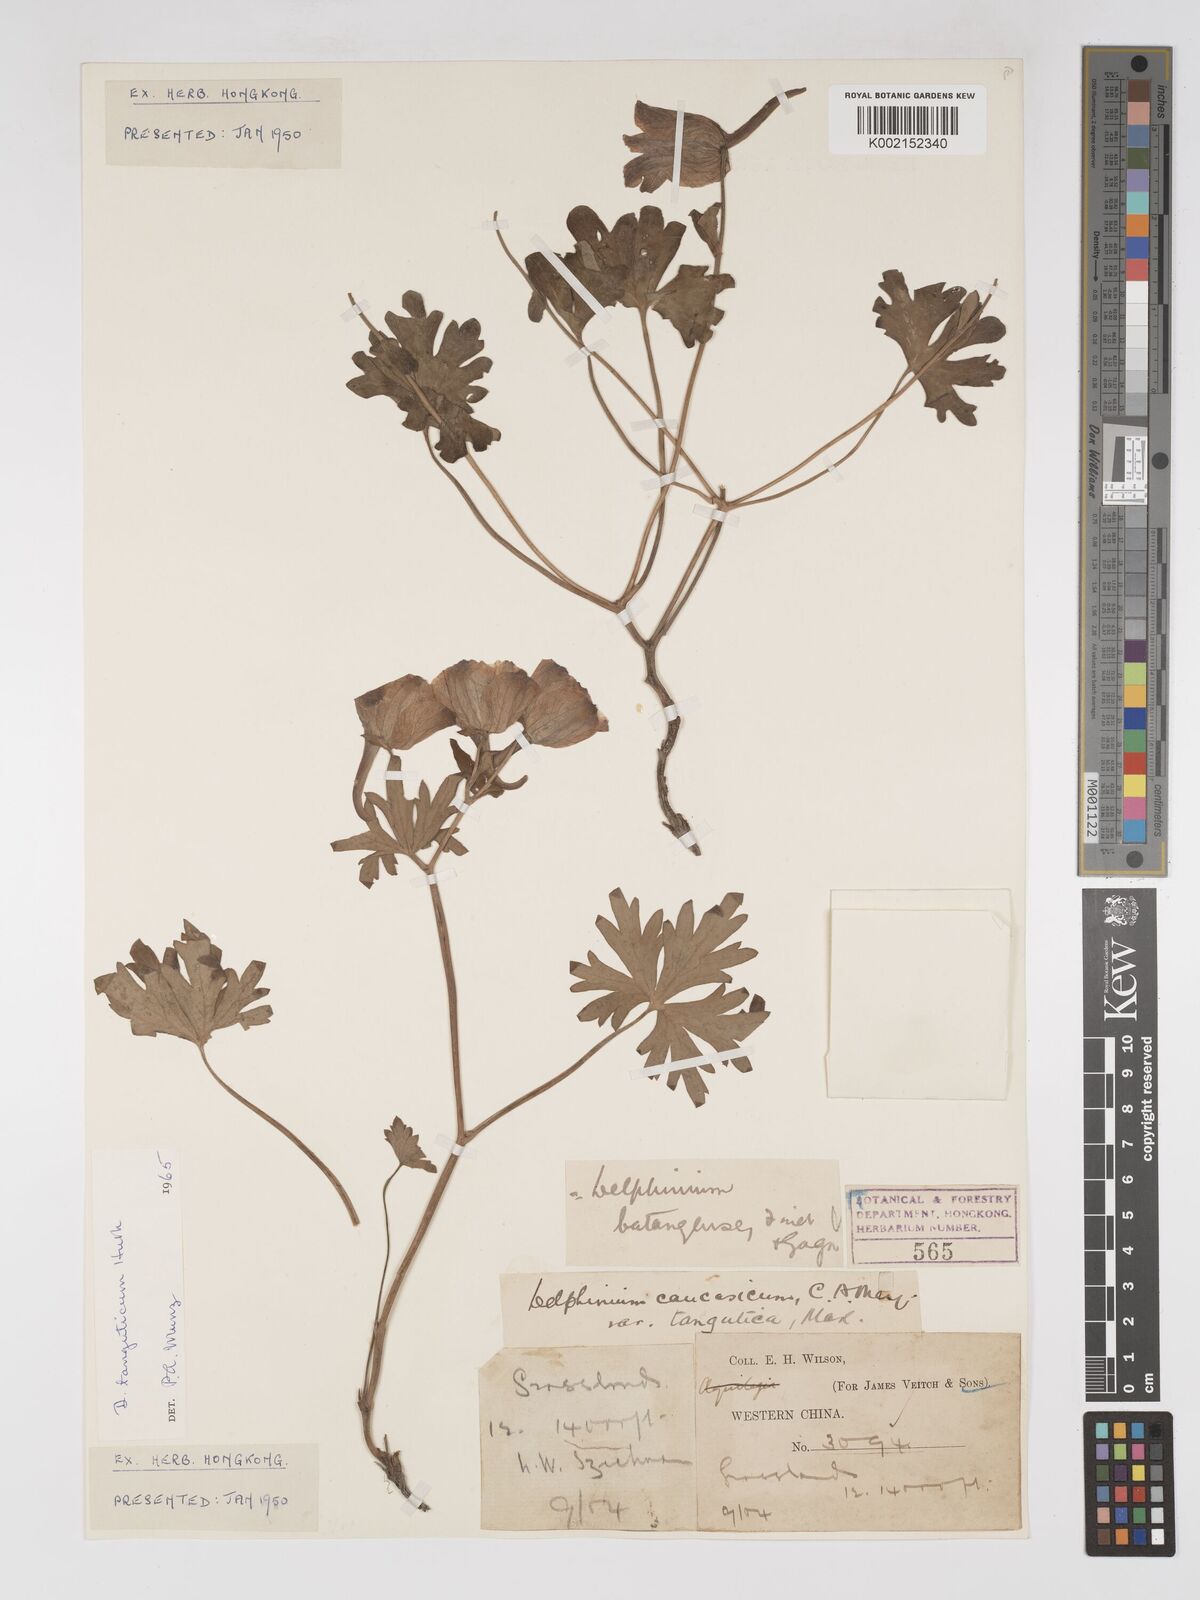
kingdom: Plantae
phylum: Tracheophyta
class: Magnoliopsida
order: Ranunculales
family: Ranunculaceae
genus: Delphinium
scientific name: Delphinium pylzowii
